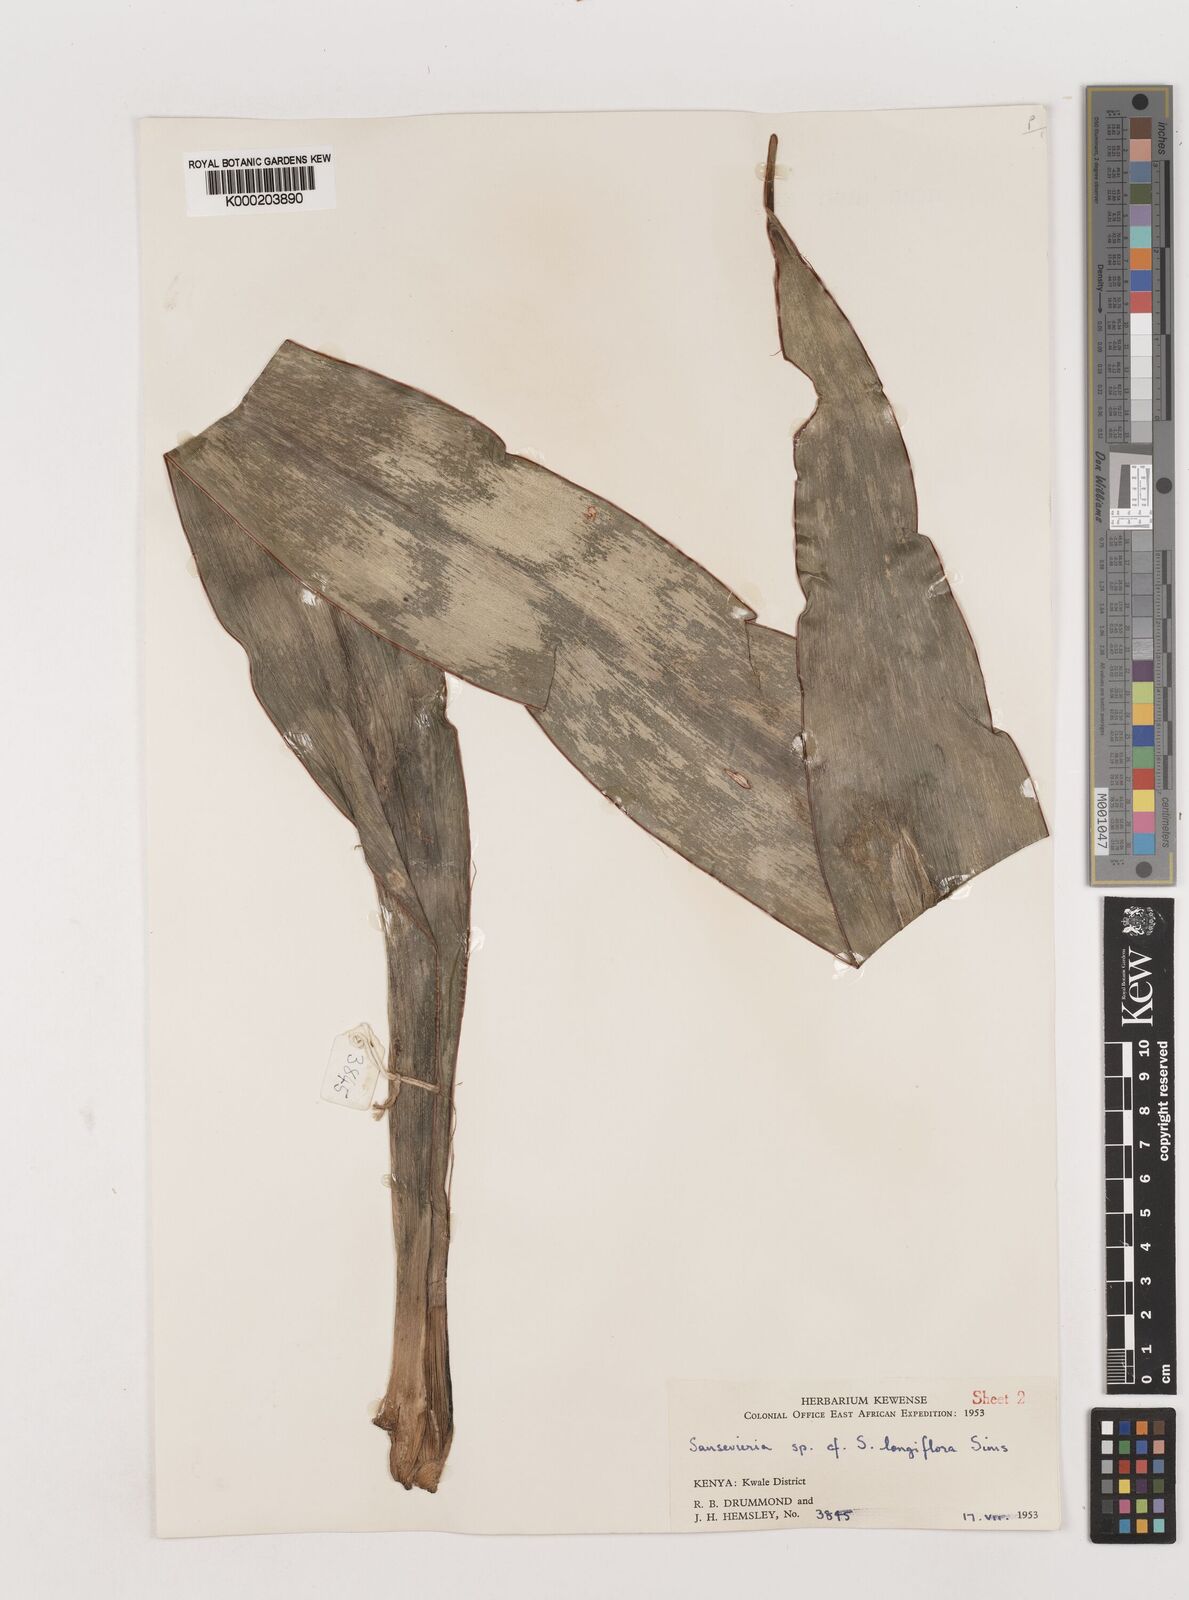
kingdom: Plantae
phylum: Tracheophyta
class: Liliopsida
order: Asparagales
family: Asparagaceae
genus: Dracaena
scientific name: Dracaena conspicua
